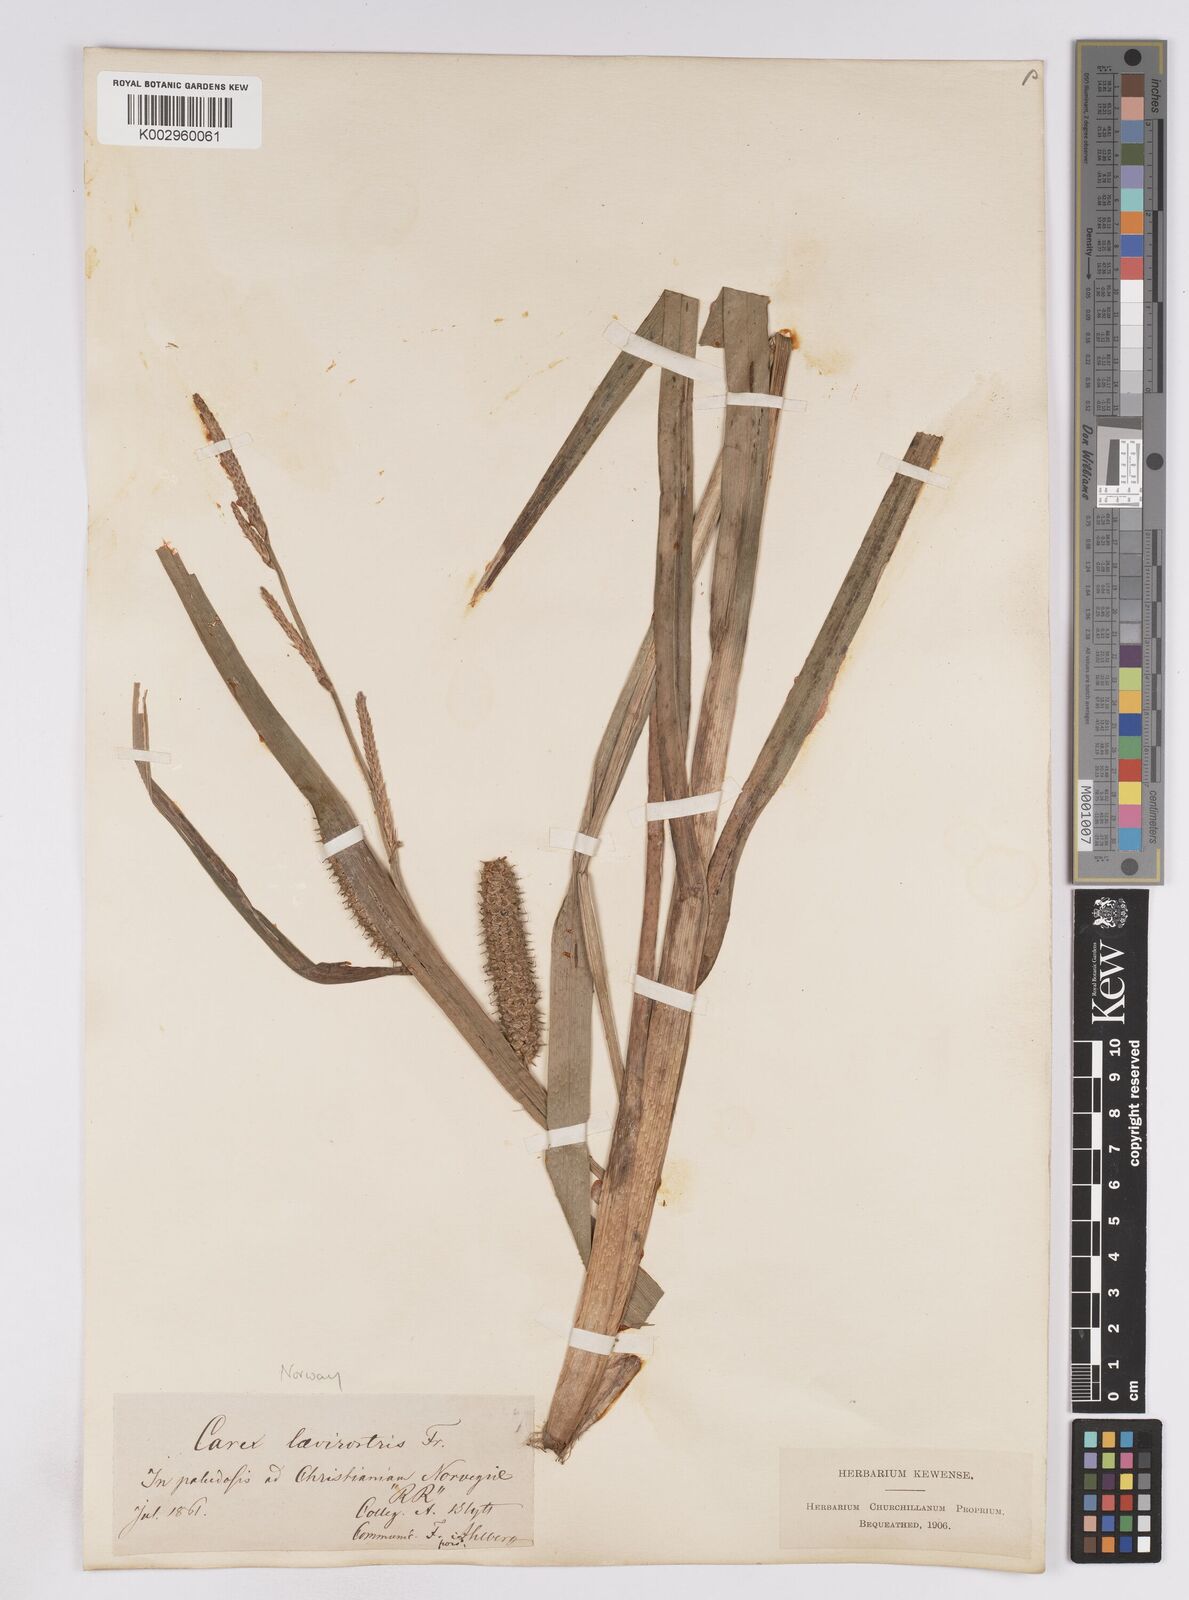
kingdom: Plantae
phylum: Tracheophyta
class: Liliopsida
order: Poales
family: Cyperaceae
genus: Carex
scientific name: Carex utriculata
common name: Beaked sedge
